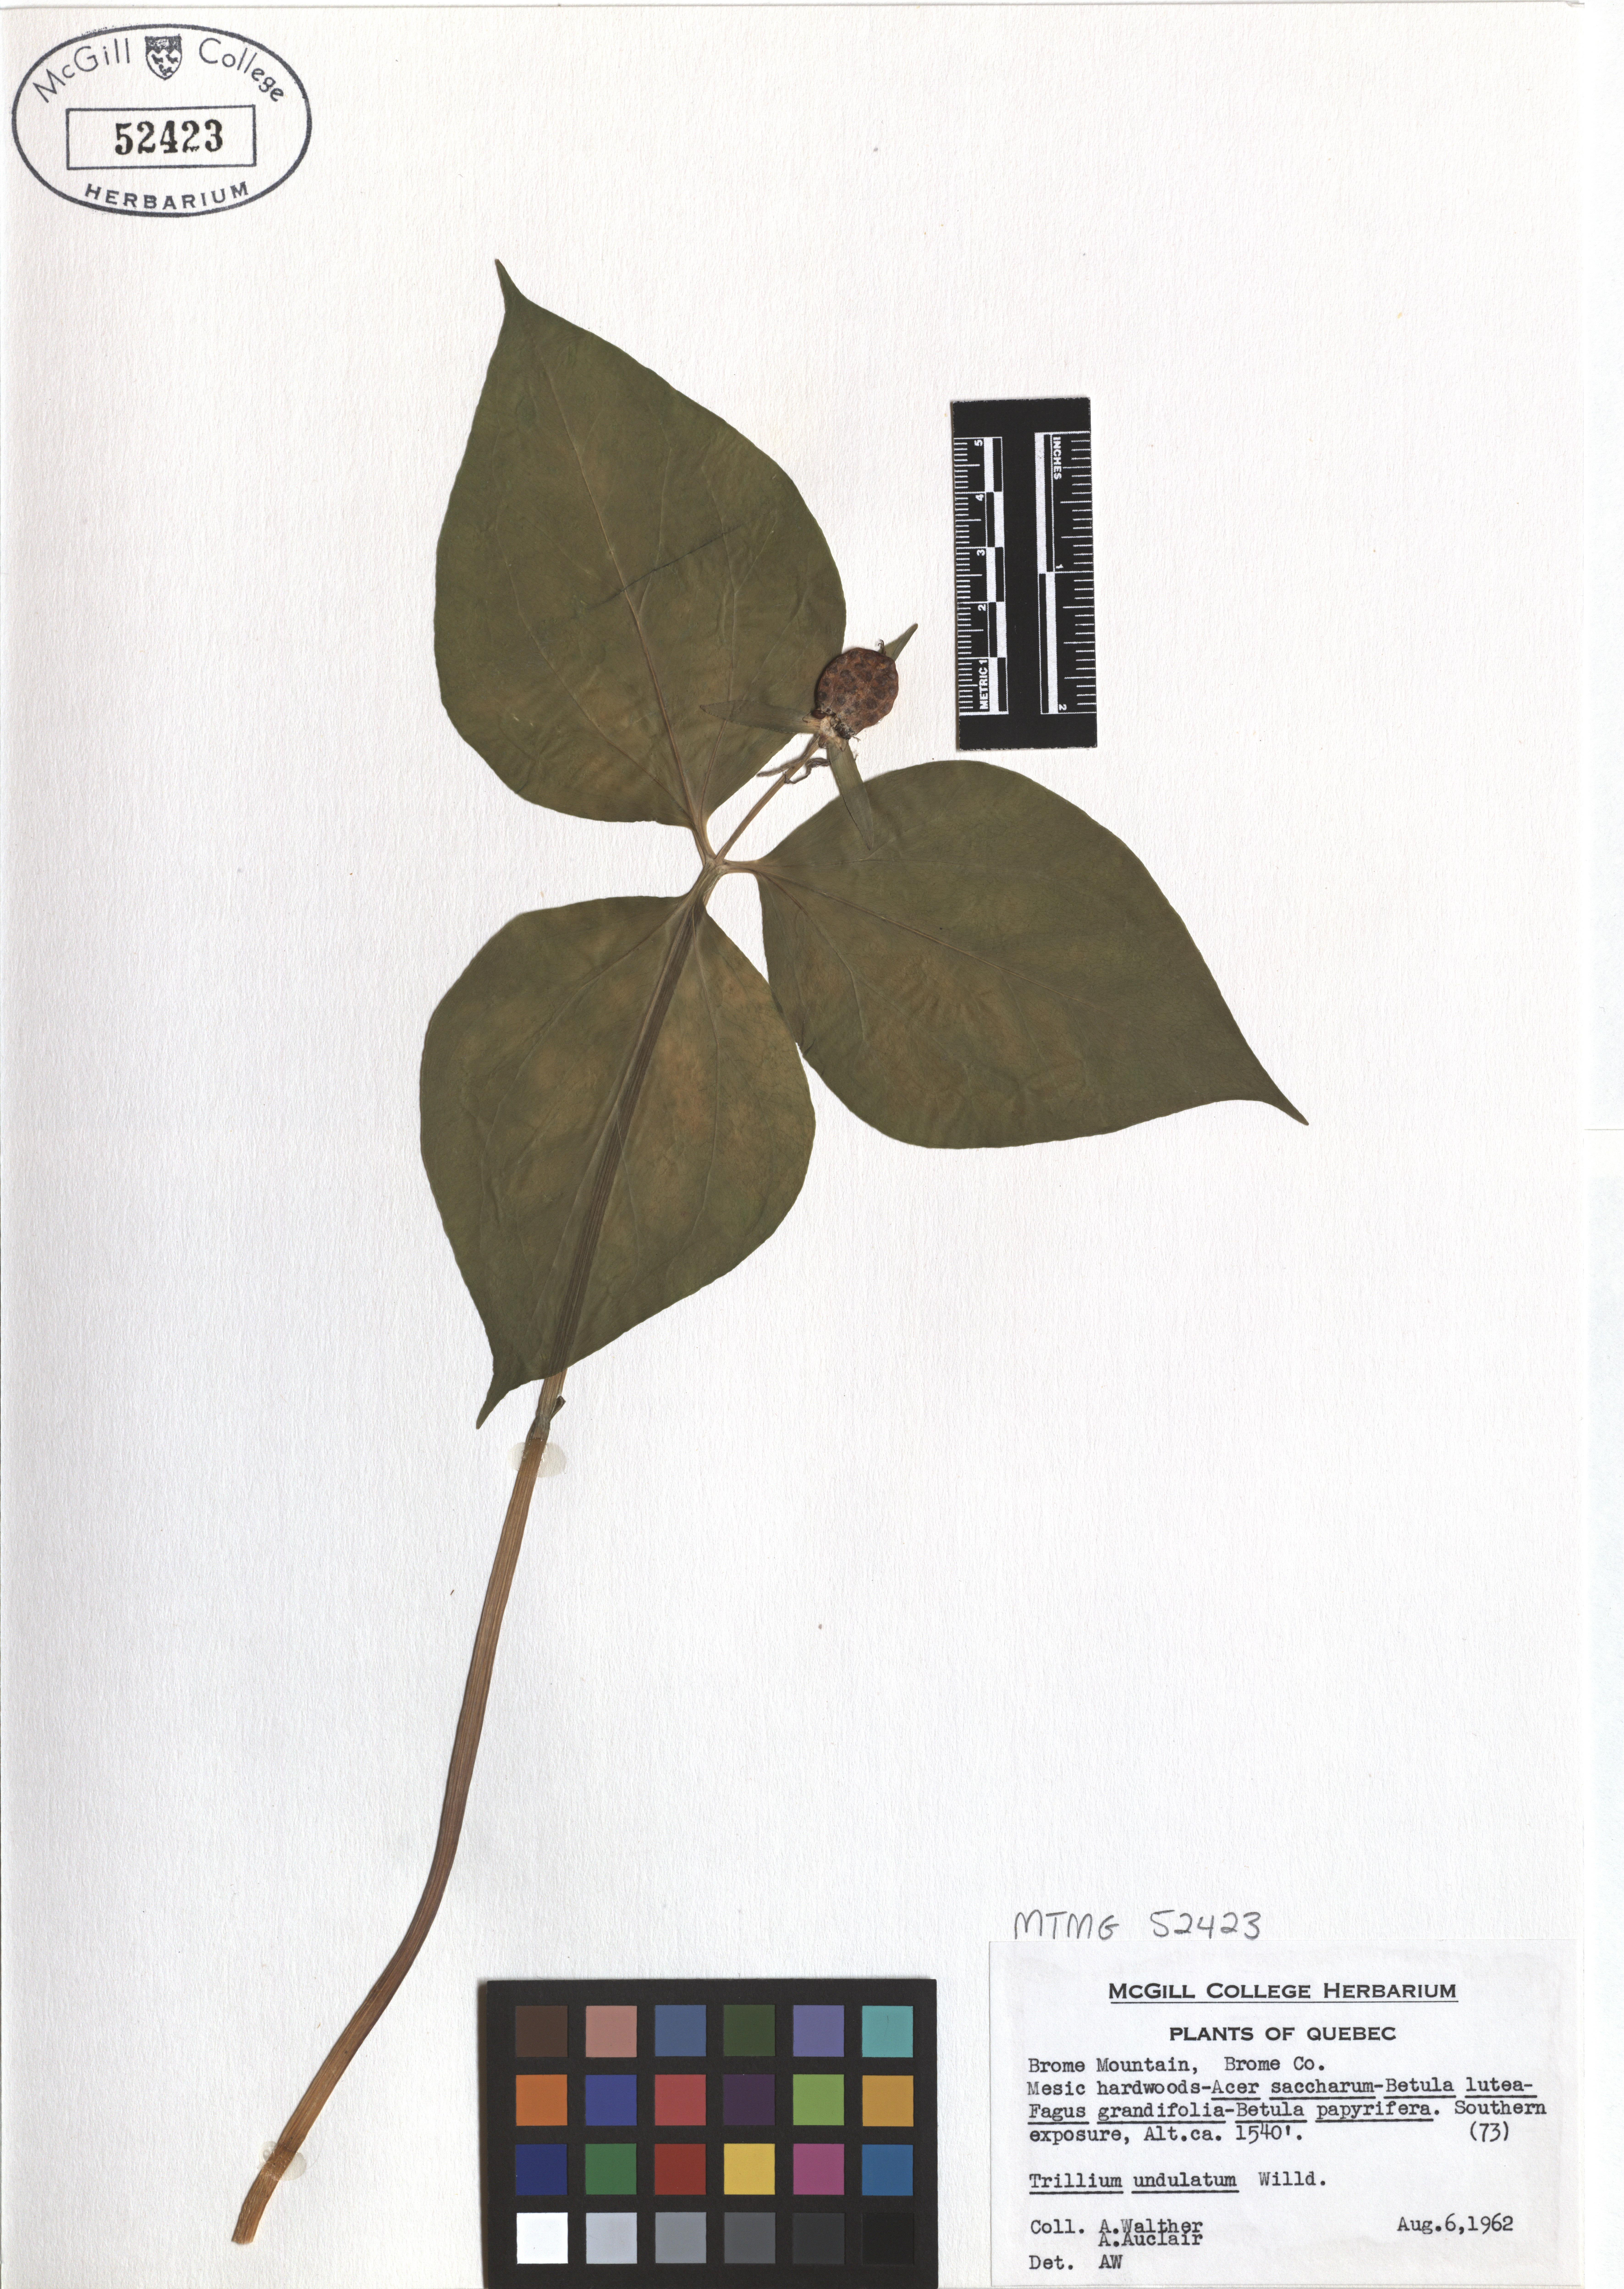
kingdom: Plantae
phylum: Tracheophyta
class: Liliopsida
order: Liliales
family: Melanthiaceae
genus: Trillium
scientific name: Trillium undulatum
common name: Paint trillium
